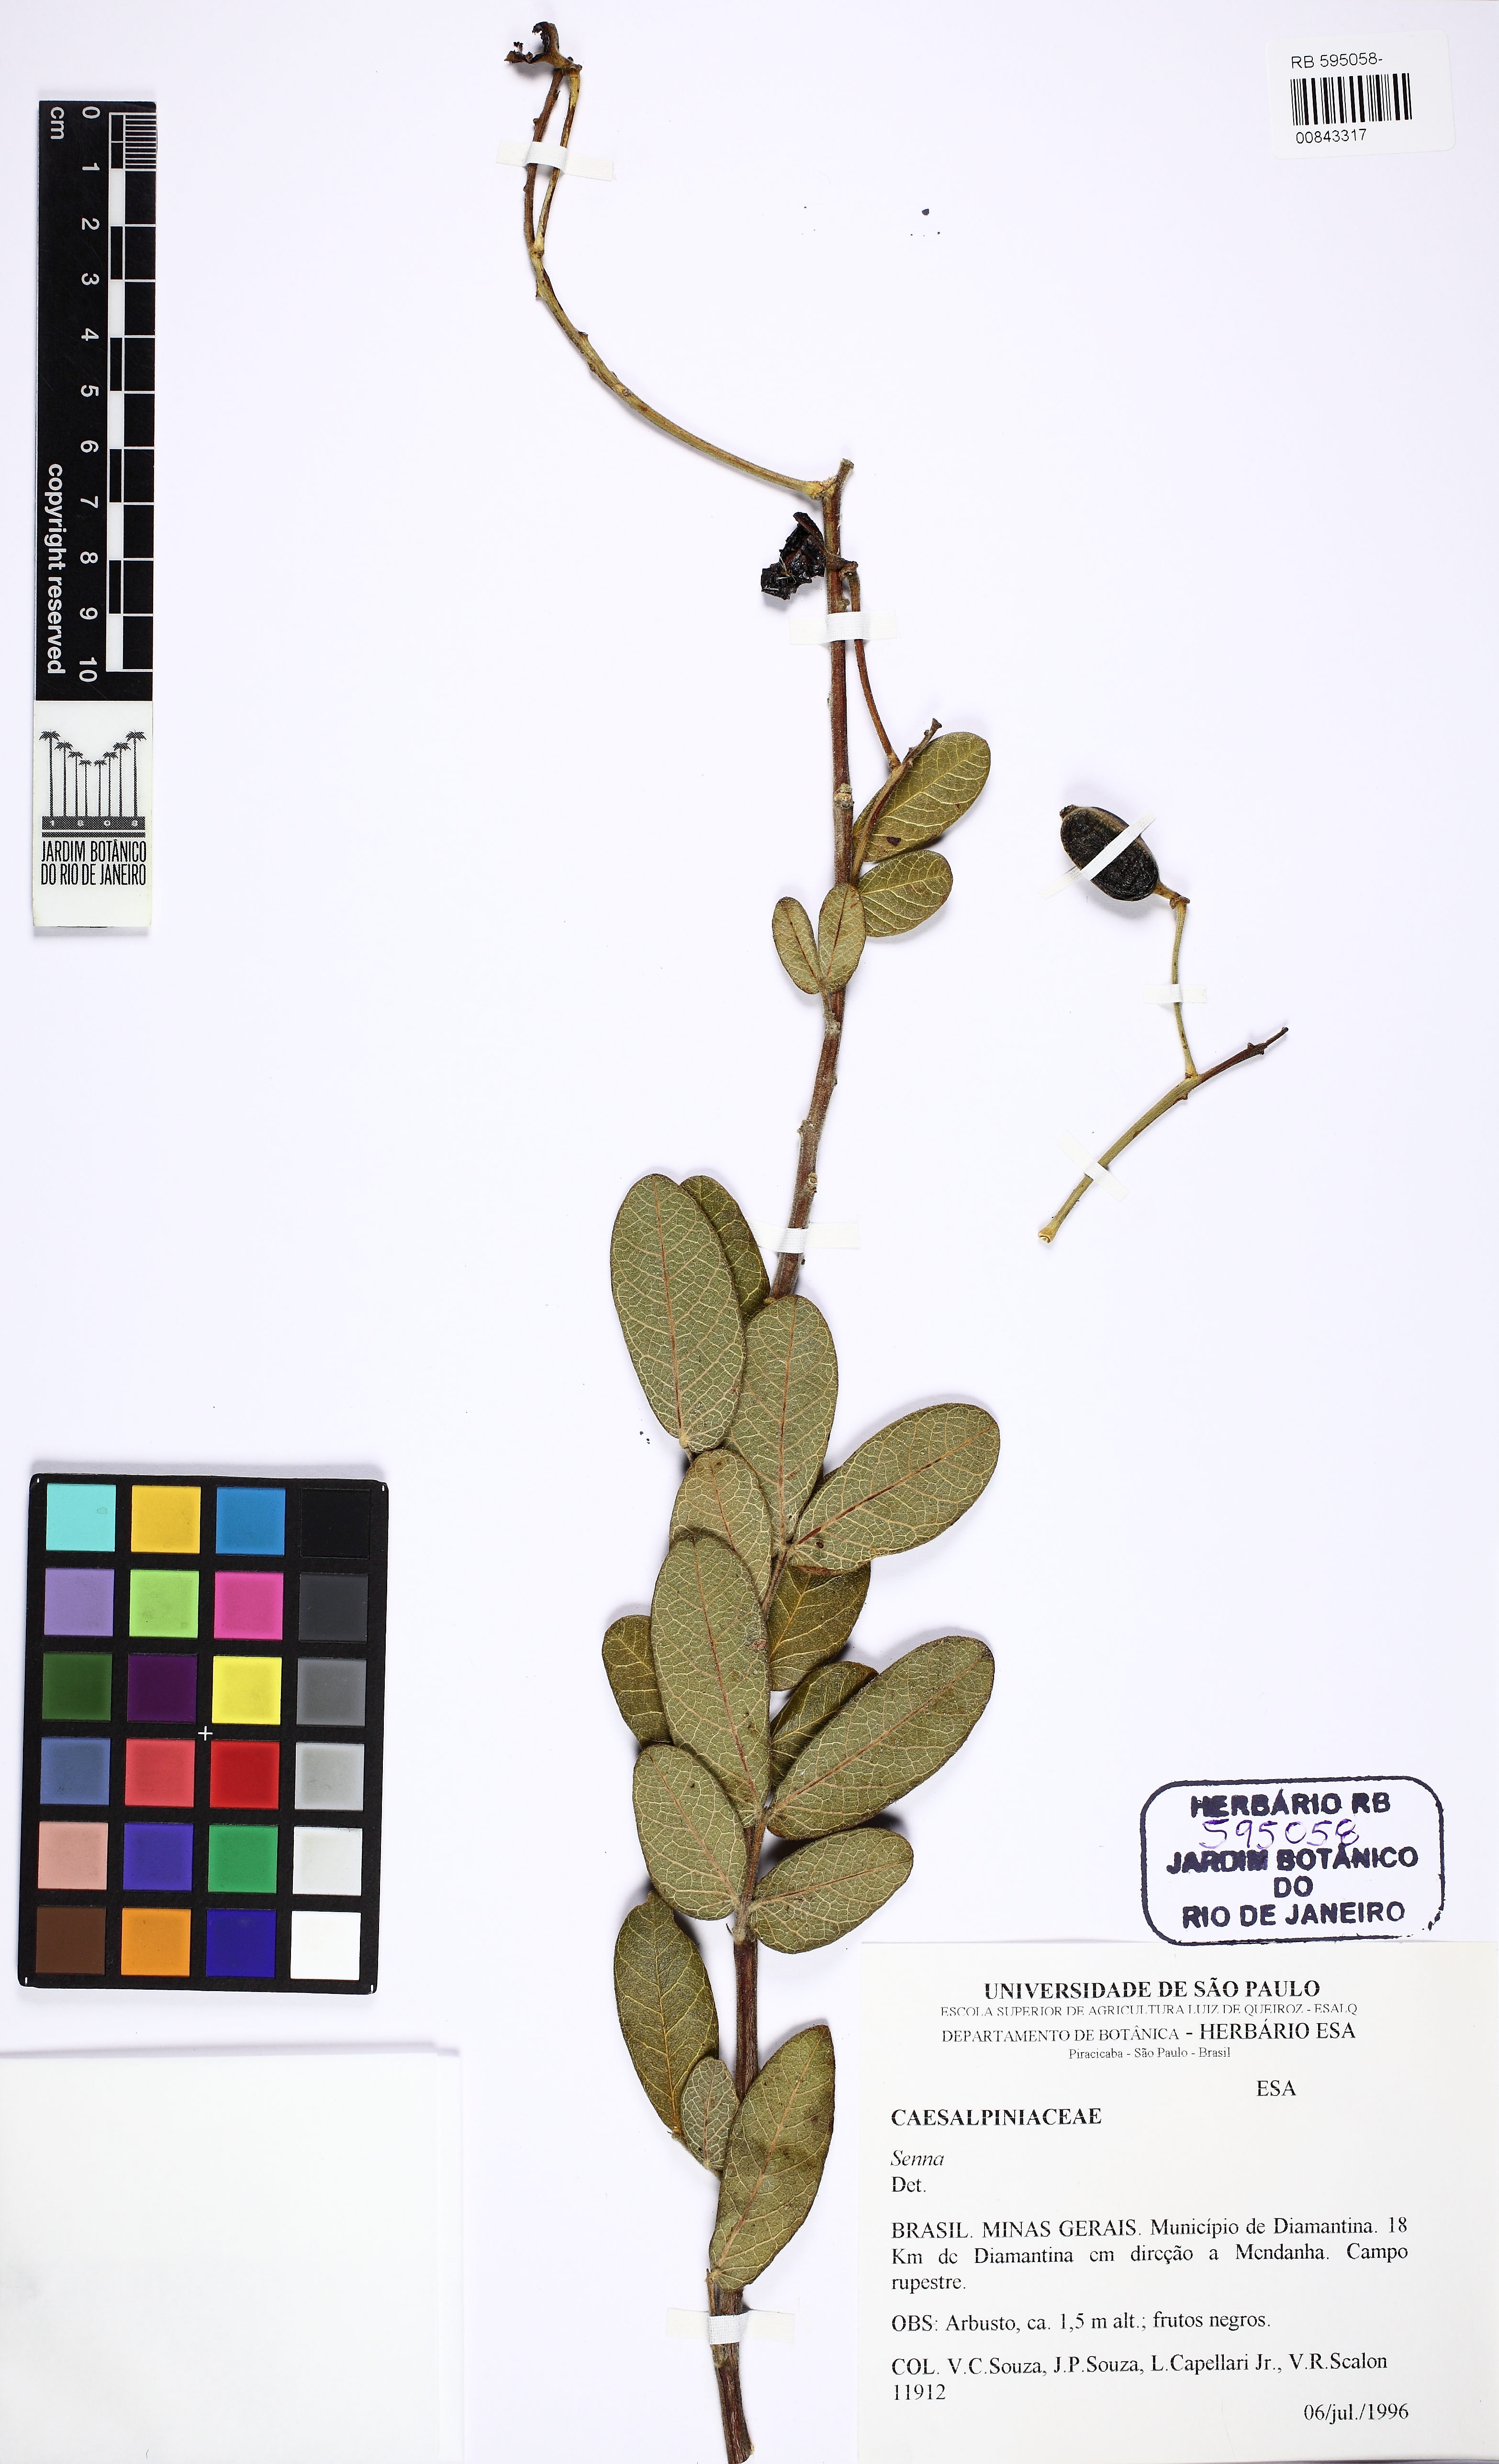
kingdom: Plantae
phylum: Tracheophyta
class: Magnoliopsida
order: Fabales
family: Fabaceae
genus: Senna
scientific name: Senna rugosa
